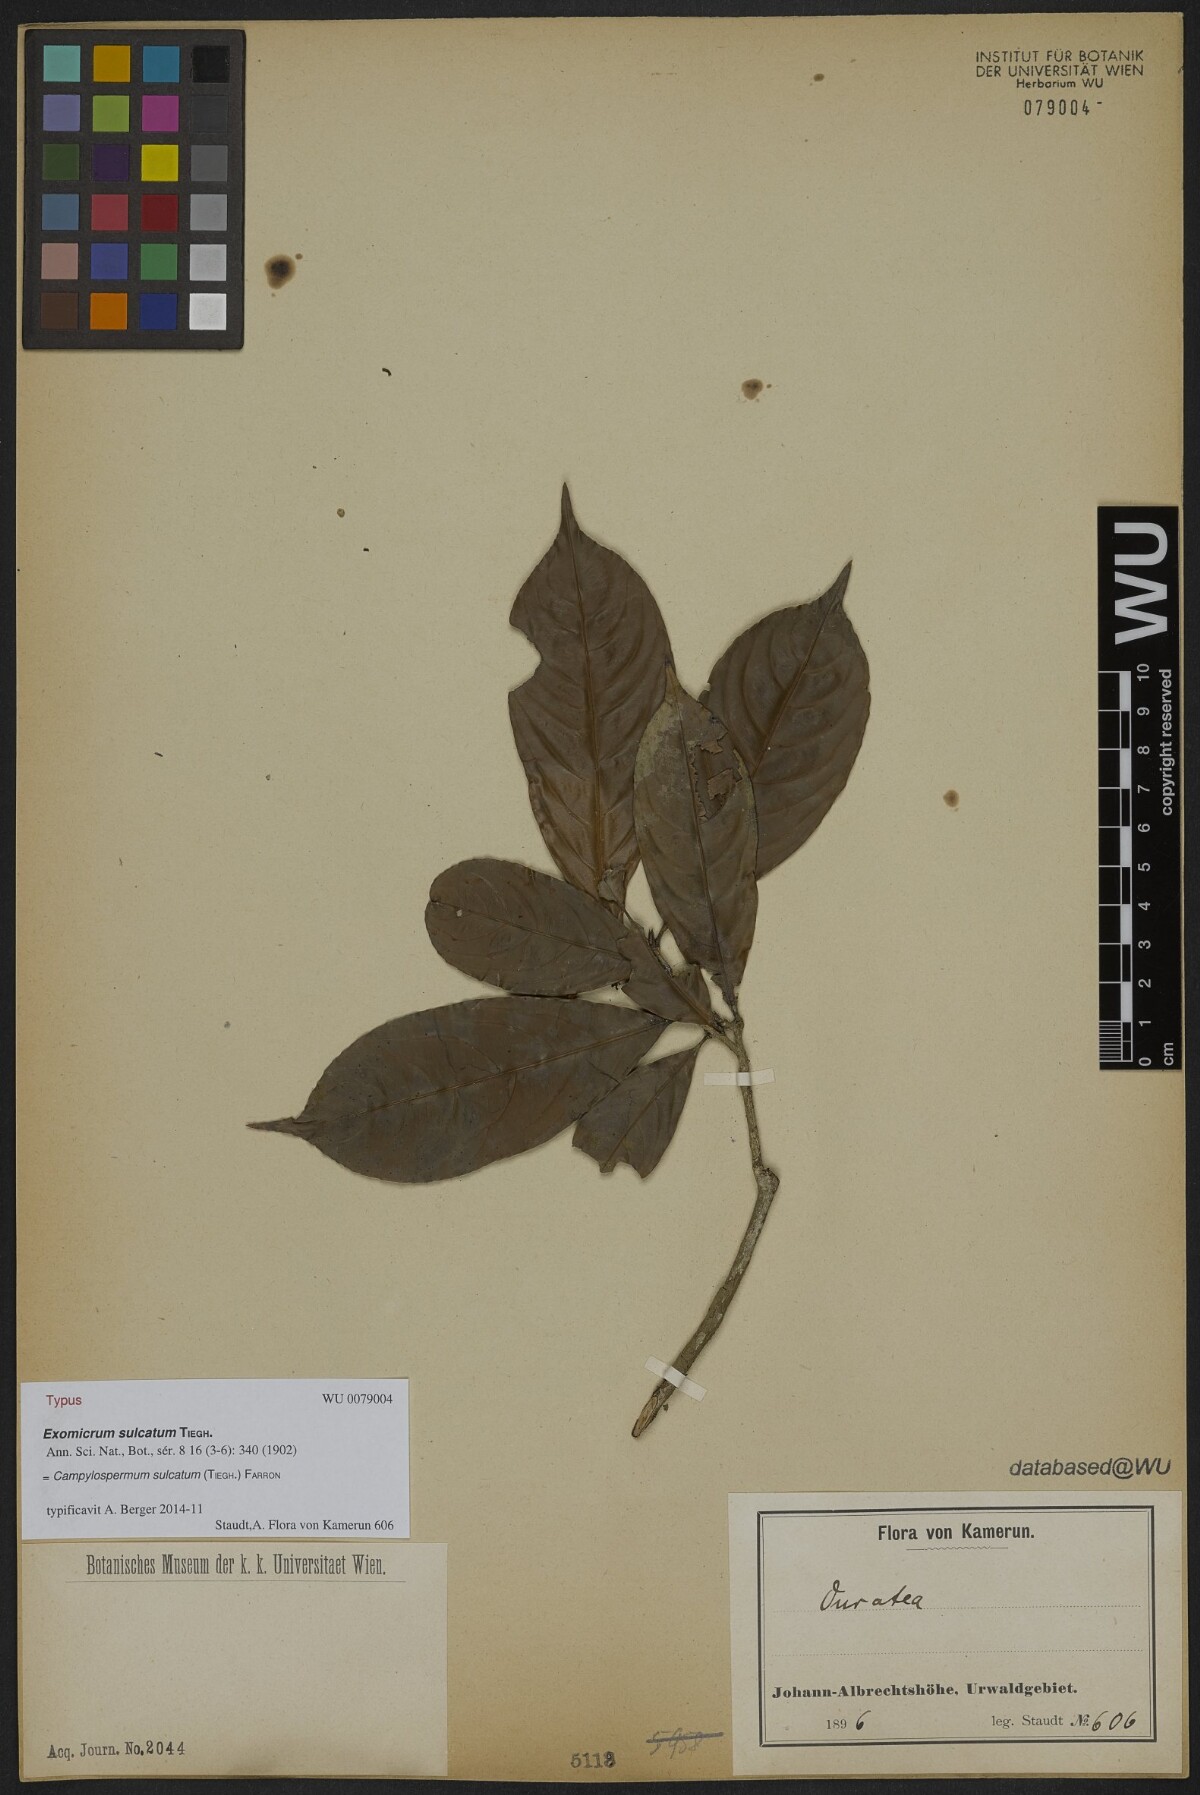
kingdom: Plantae
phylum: Tracheophyta
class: Magnoliopsida
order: Malpighiales
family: Ochnaceae
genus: Campylospermum
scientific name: Campylospermum sulcatum
